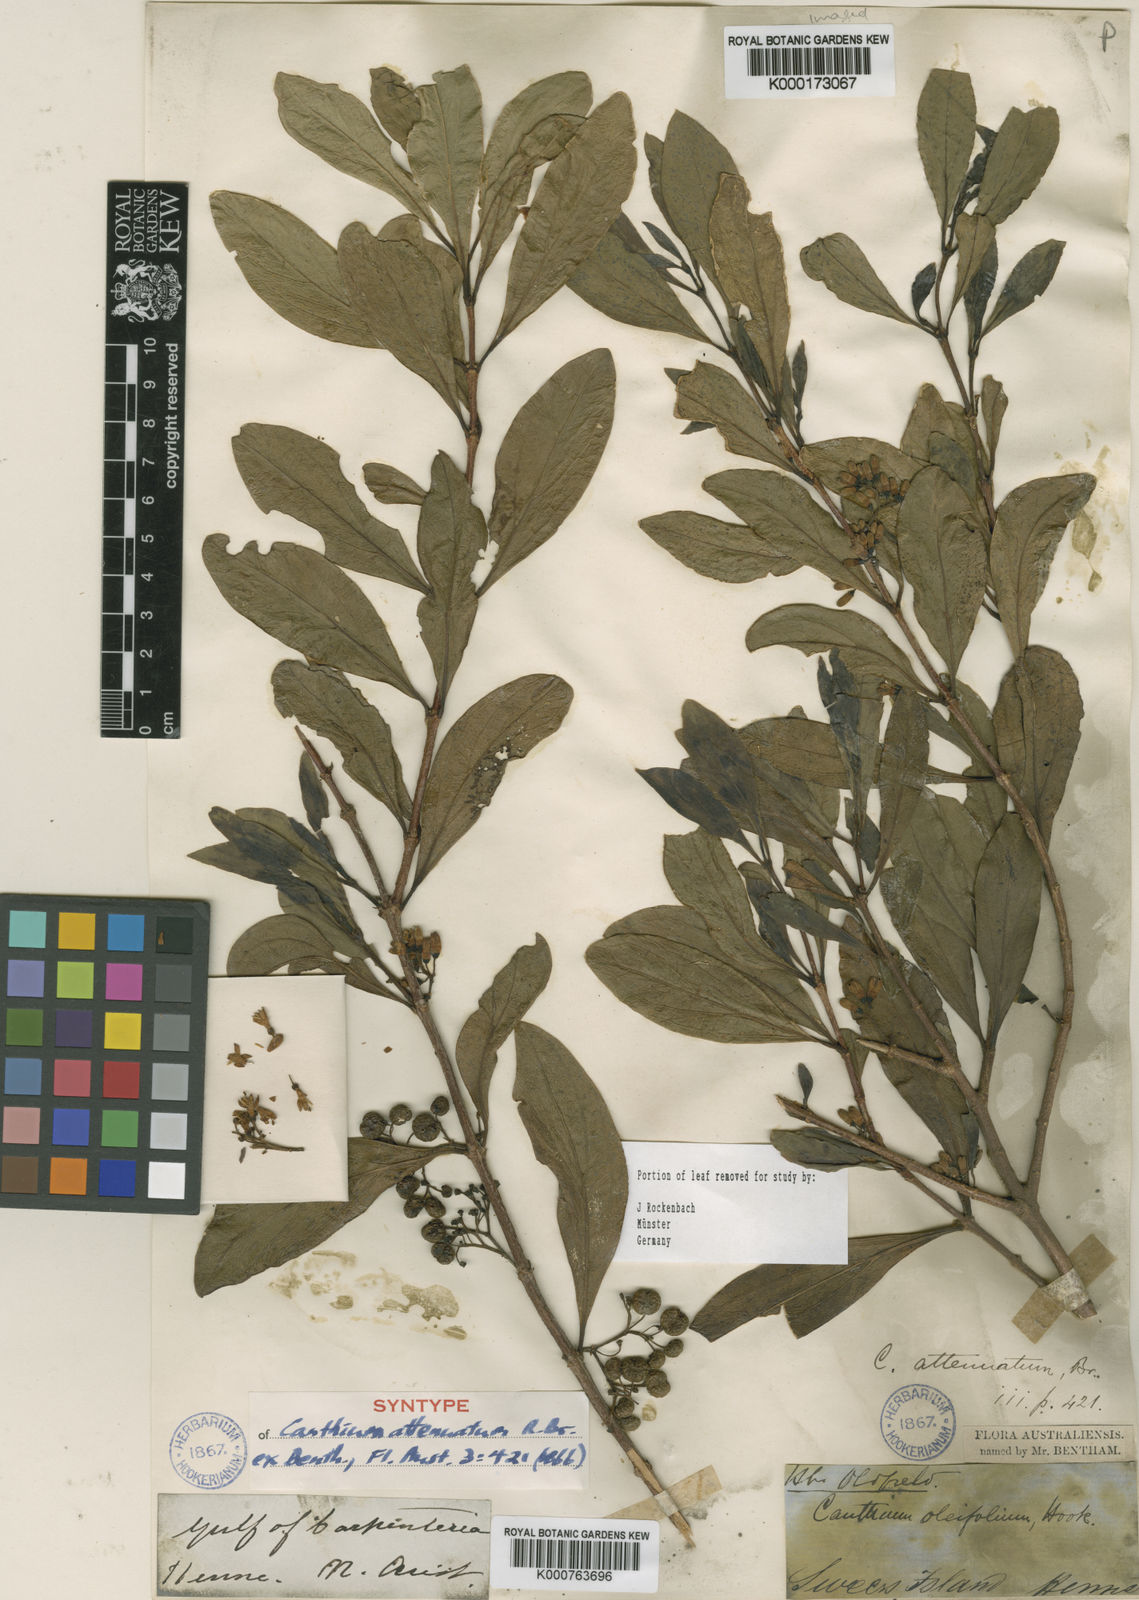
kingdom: Plantae
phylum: Tracheophyta
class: Magnoliopsida
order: Gentianales
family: Rubiaceae
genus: Psydrax
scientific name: Psydrax attenuatus
